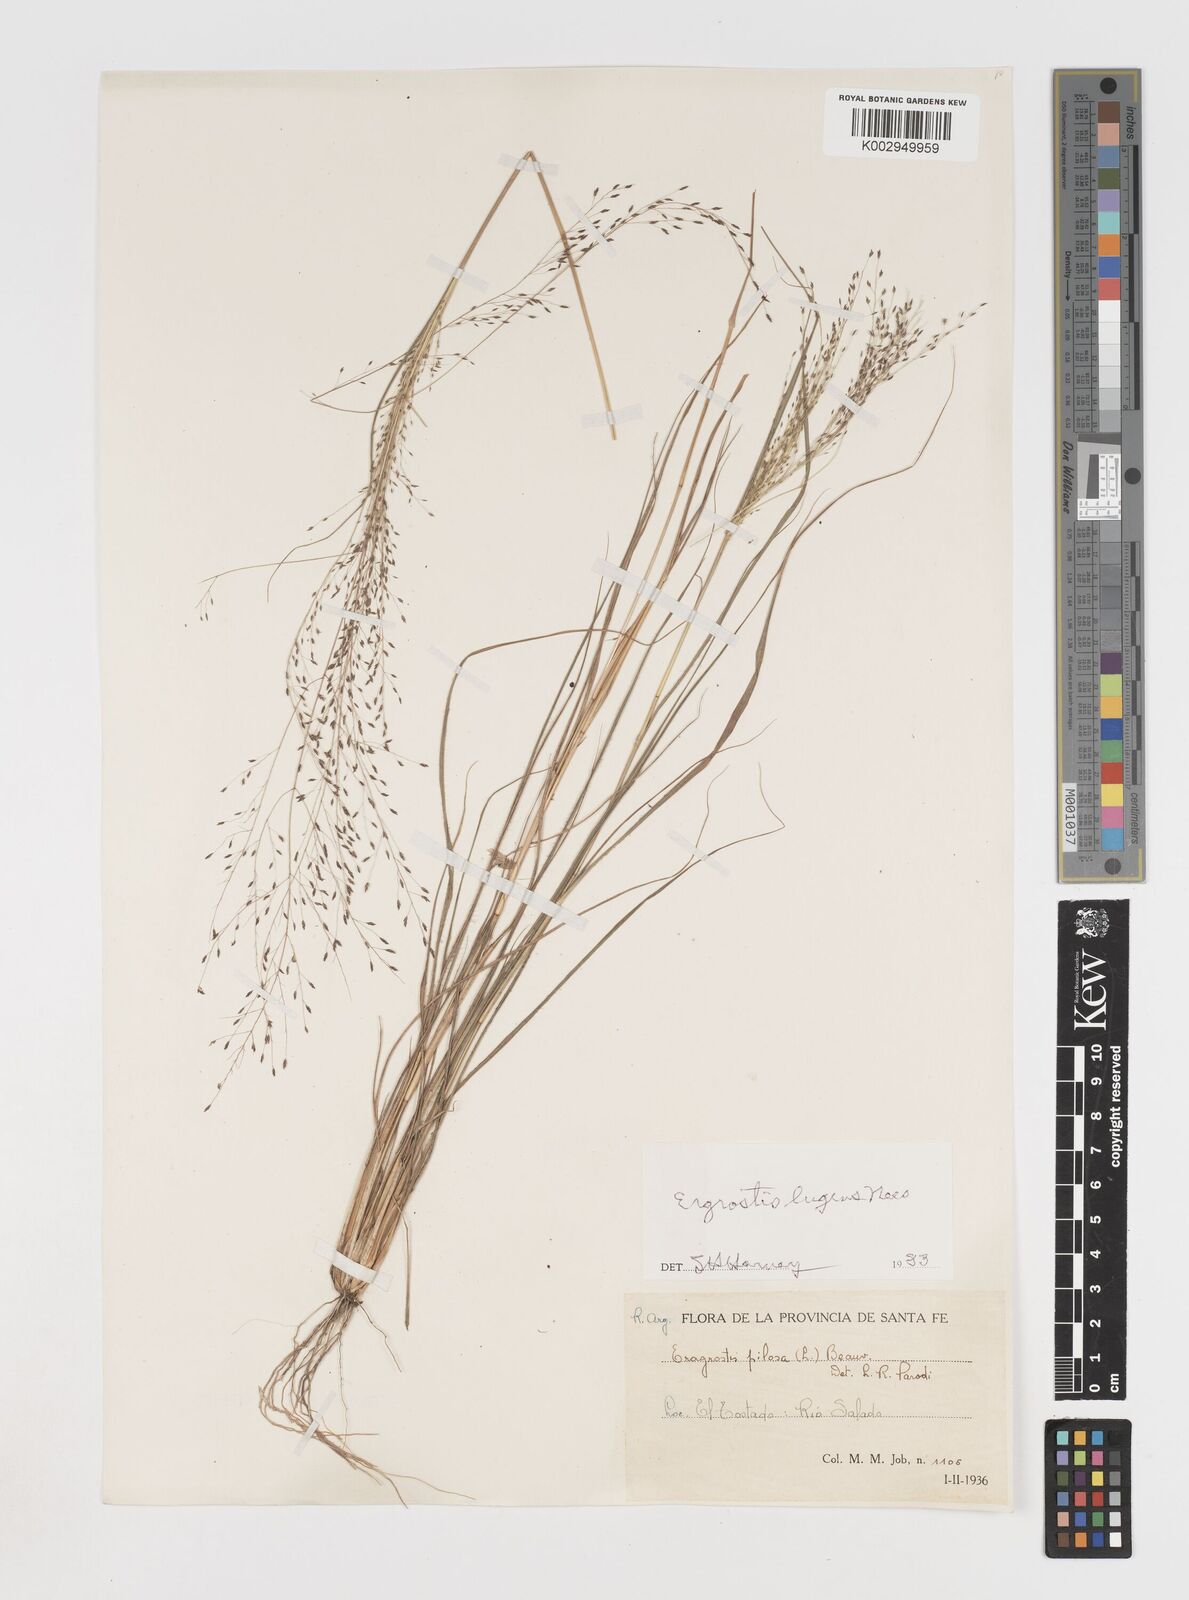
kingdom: Plantae
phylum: Tracheophyta
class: Liliopsida
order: Poales
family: Poaceae
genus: Eragrostis
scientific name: Eragrostis
